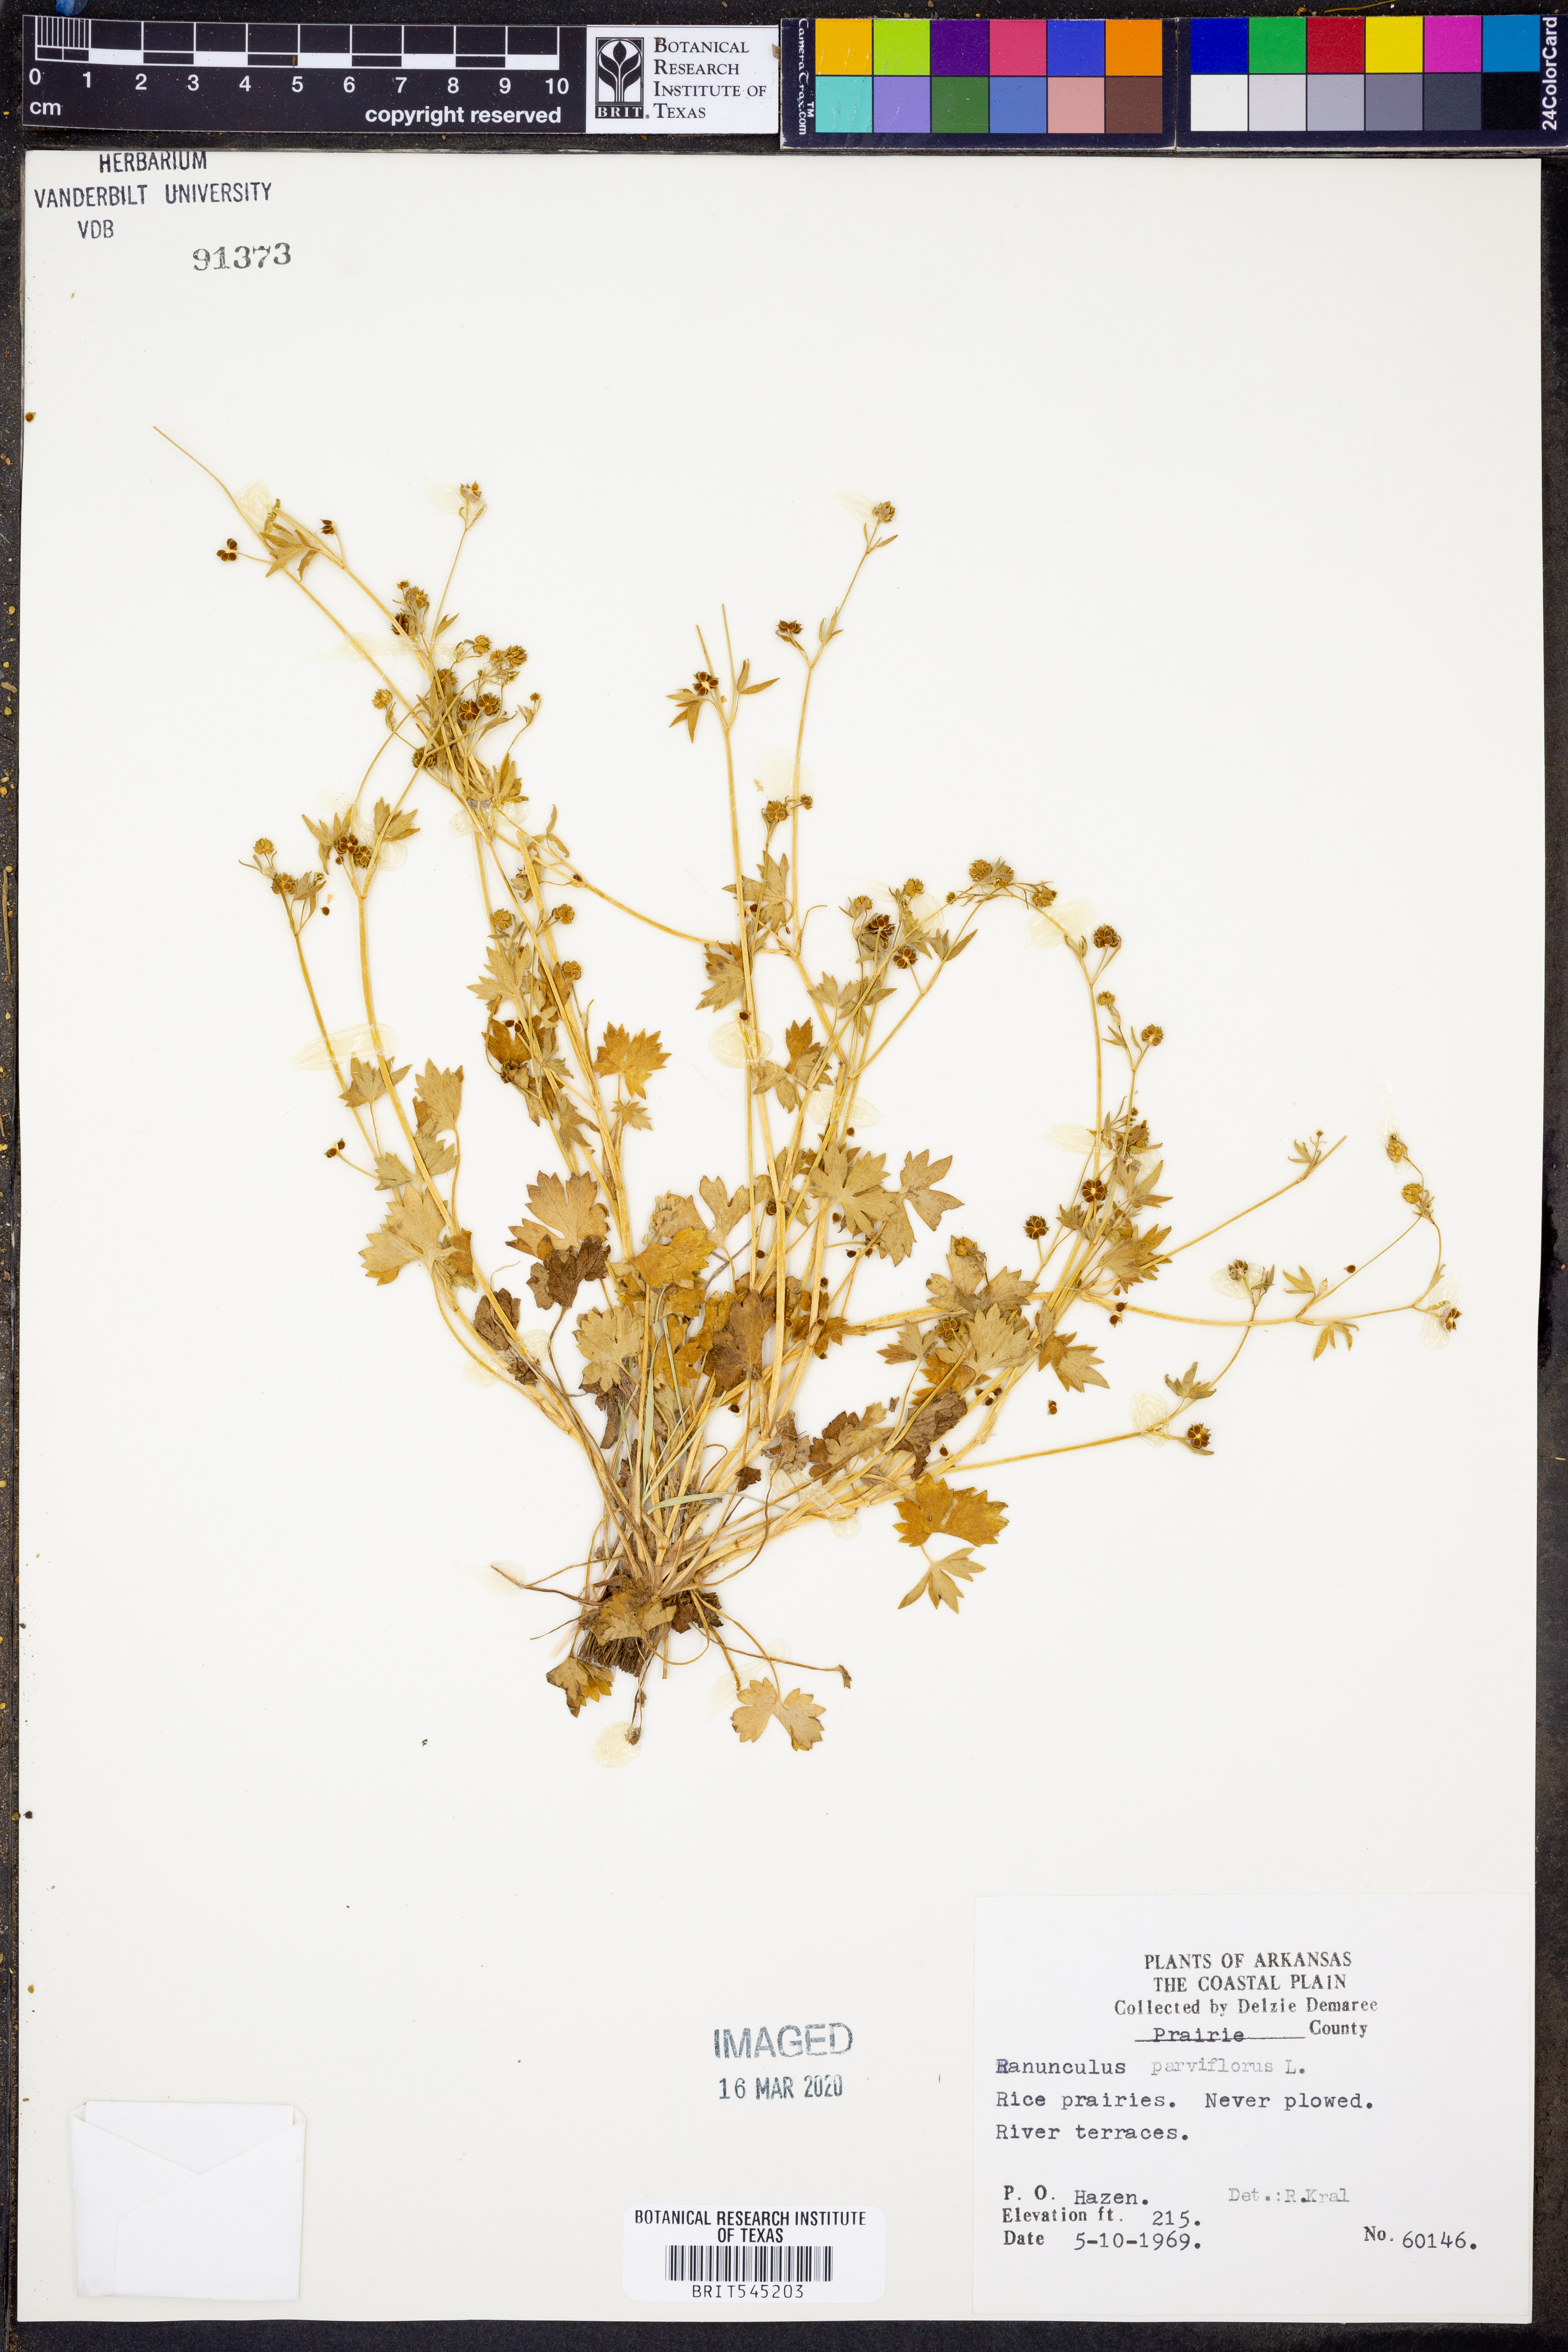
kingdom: Plantae
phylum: Tracheophyta
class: Magnoliopsida
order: Ranunculales
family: Ranunculaceae
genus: Ranunculus
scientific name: Ranunculus parviflorus
